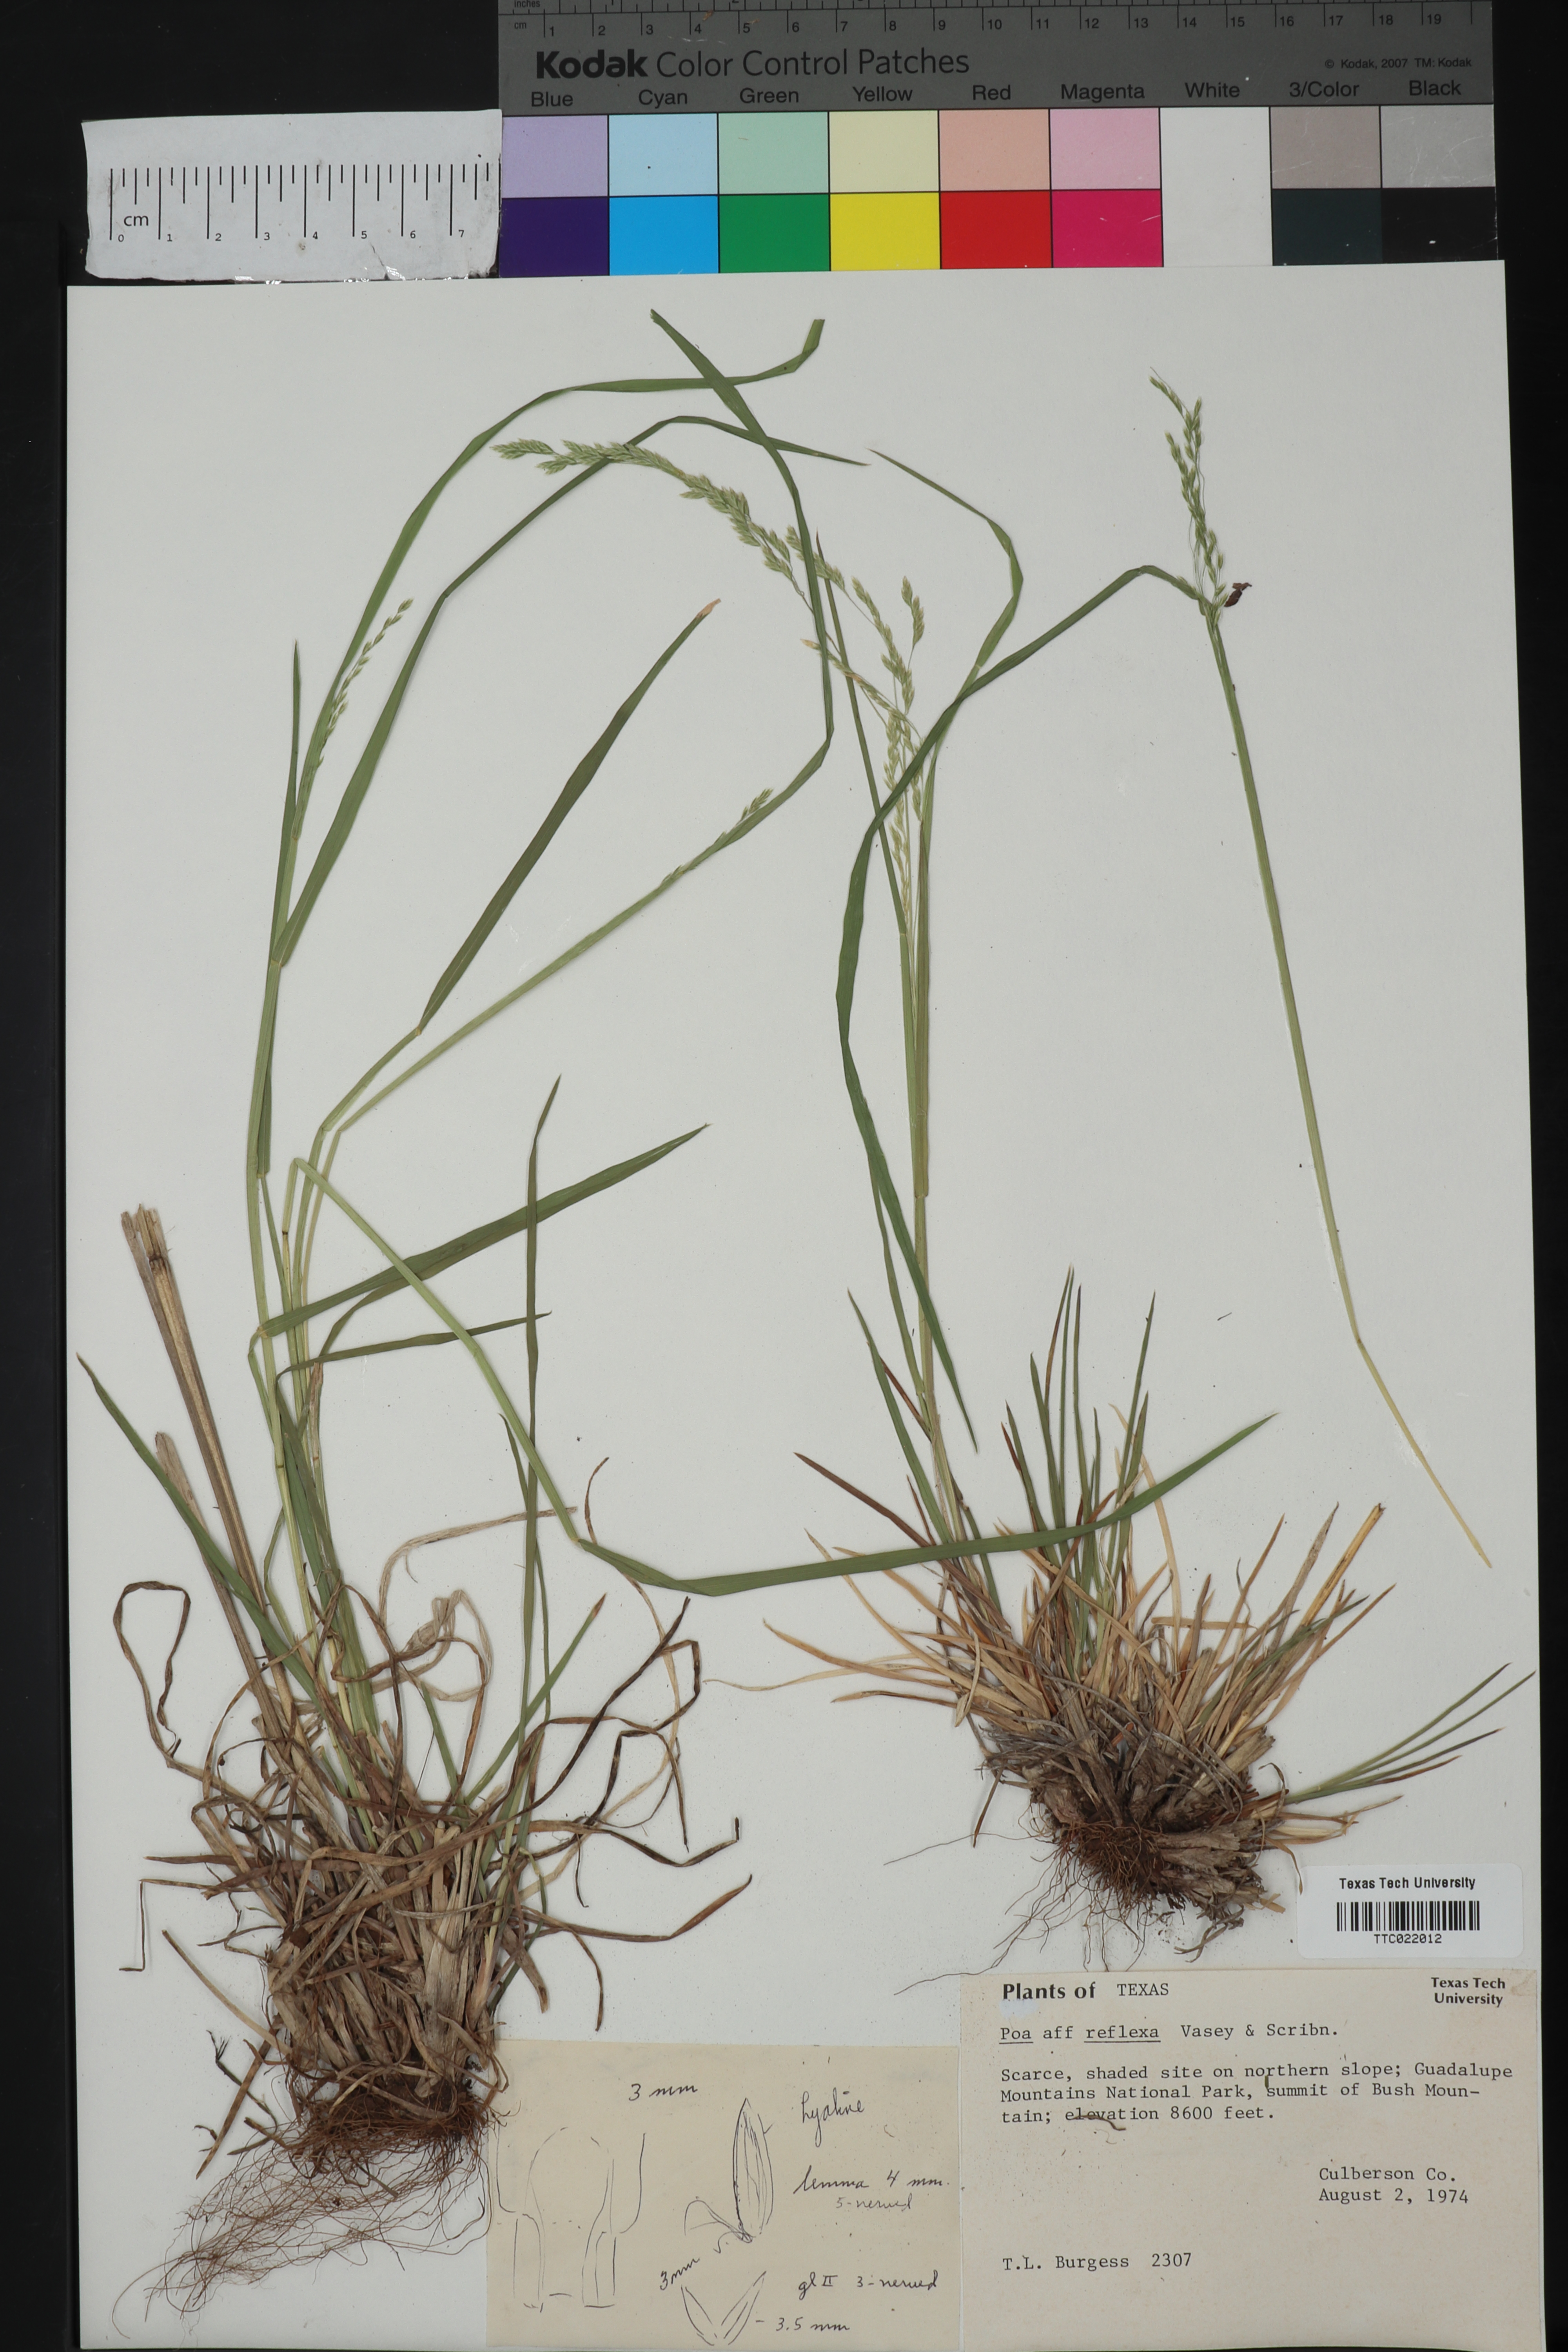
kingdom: Plantae
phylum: Tracheophyta
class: Liliopsida
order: Poales
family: Poaceae
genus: Poa
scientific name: Poa reflexa
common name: Nodding bluegrass
